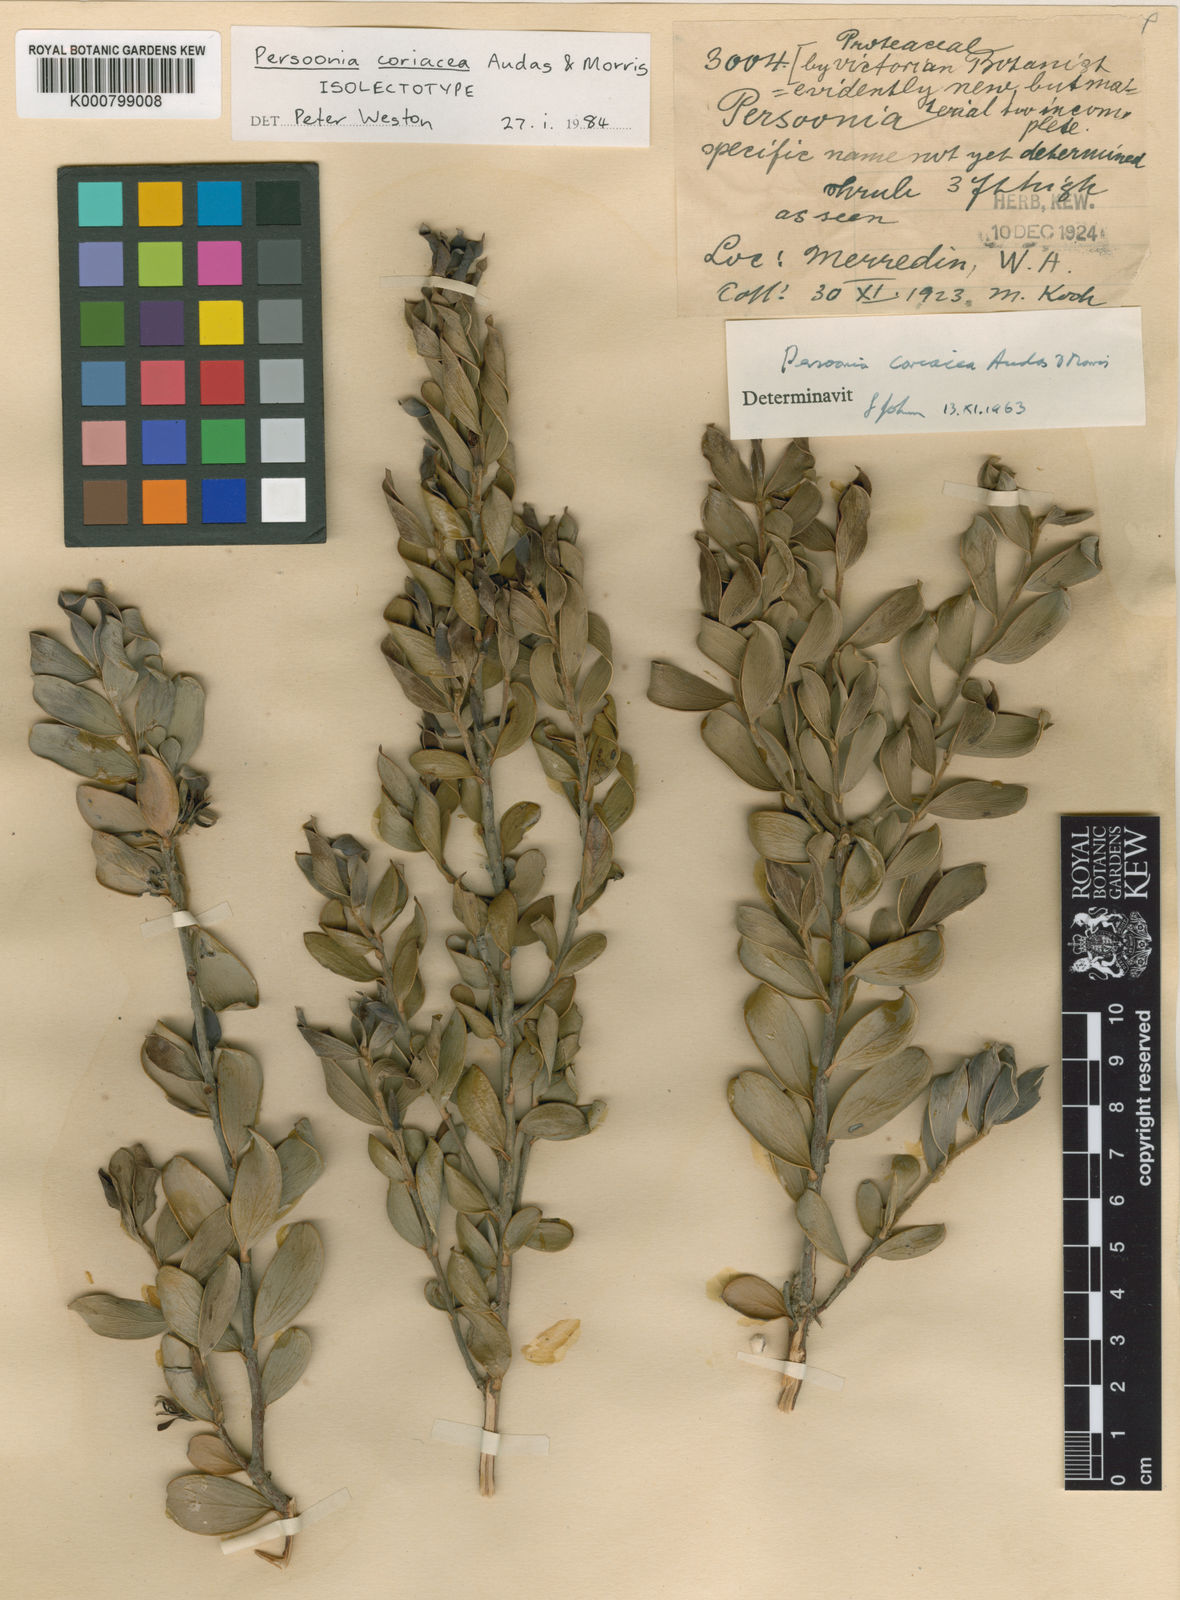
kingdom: Plantae
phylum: Tracheophyta
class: Magnoliopsida
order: Proteales
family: Proteaceae
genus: Persoonia
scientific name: Persoonia coriacea
